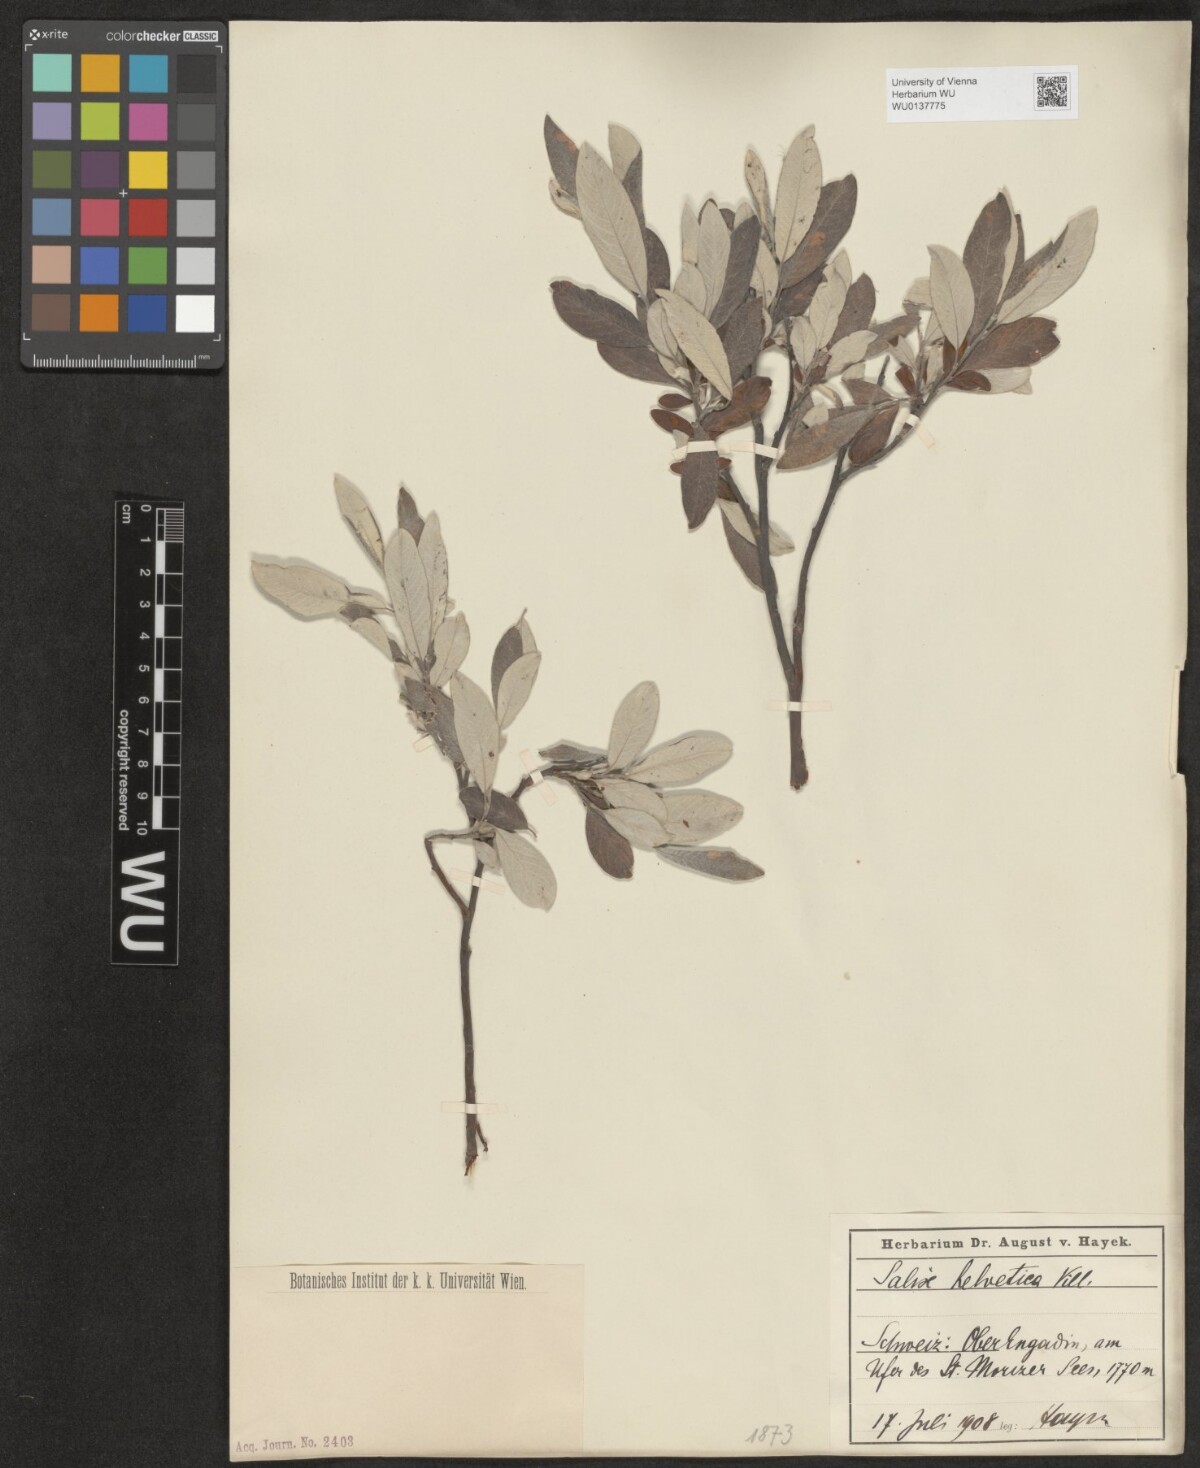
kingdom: Plantae
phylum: Tracheophyta
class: Magnoliopsida
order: Malpighiales
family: Salicaceae
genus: Salix
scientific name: Salix helvetica
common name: Swiss willow
